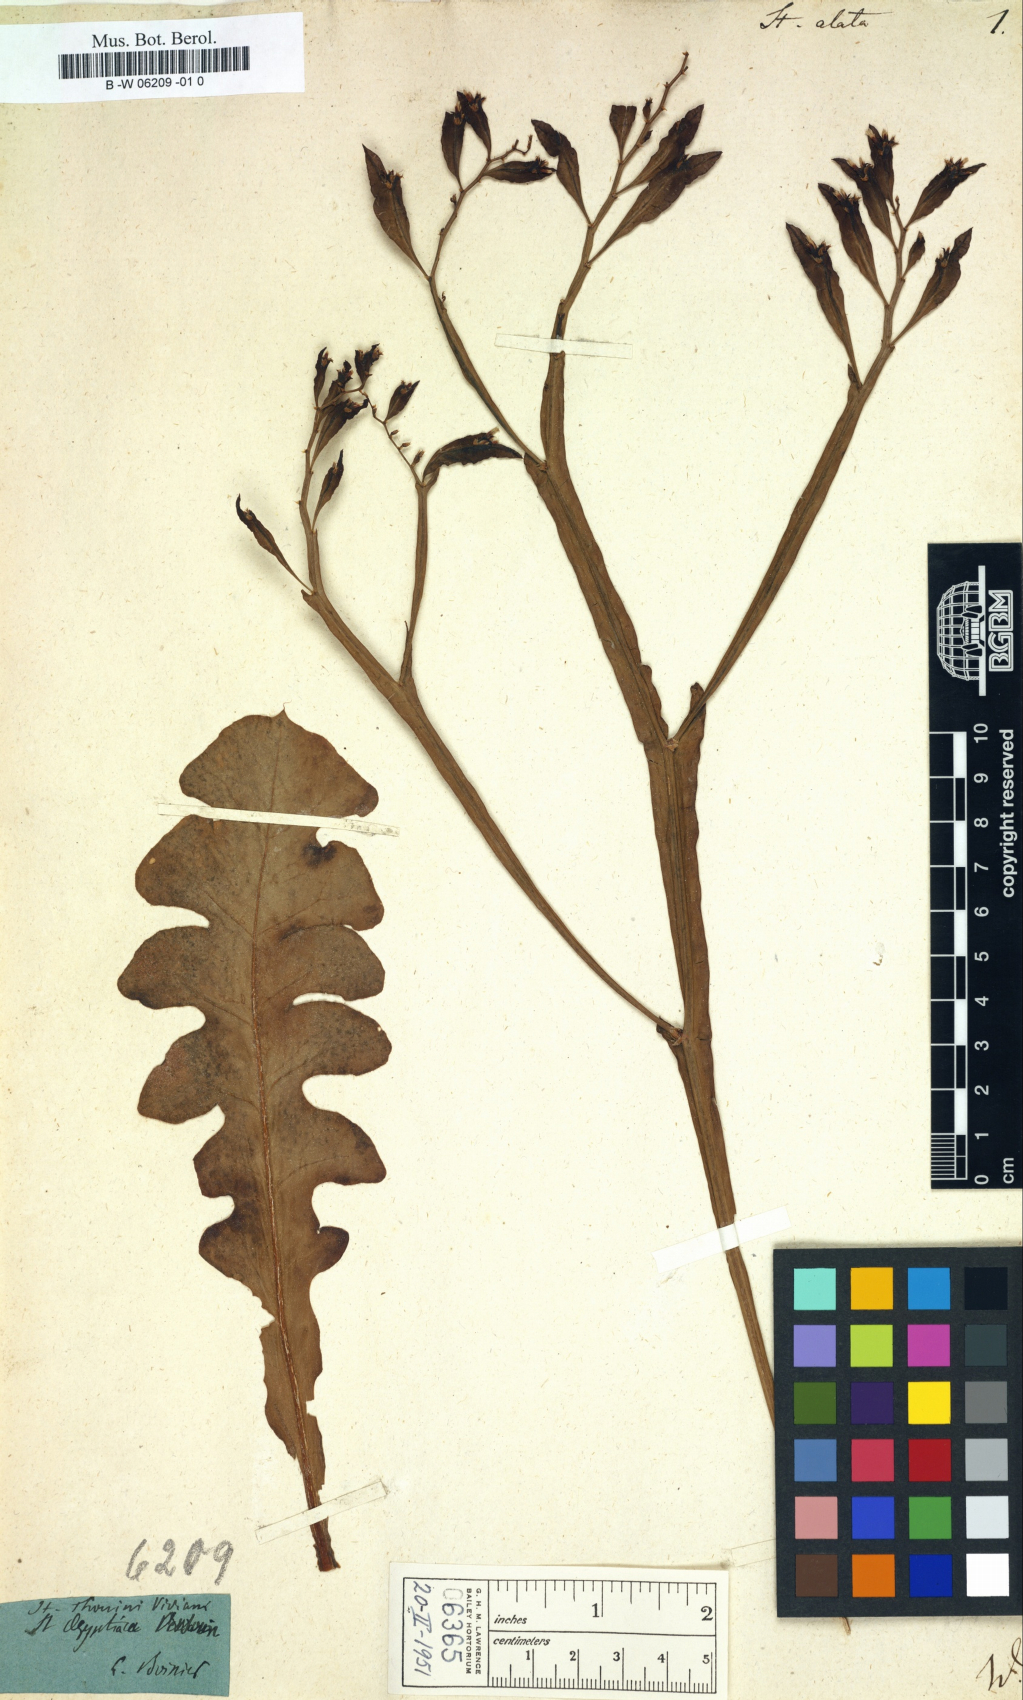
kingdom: Plantae
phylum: Tracheophyta
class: Magnoliopsida
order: Caryophyllales
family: Plumbaginaceae
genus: Limonium
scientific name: Limonium lobatum
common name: Winged sea-lavender
